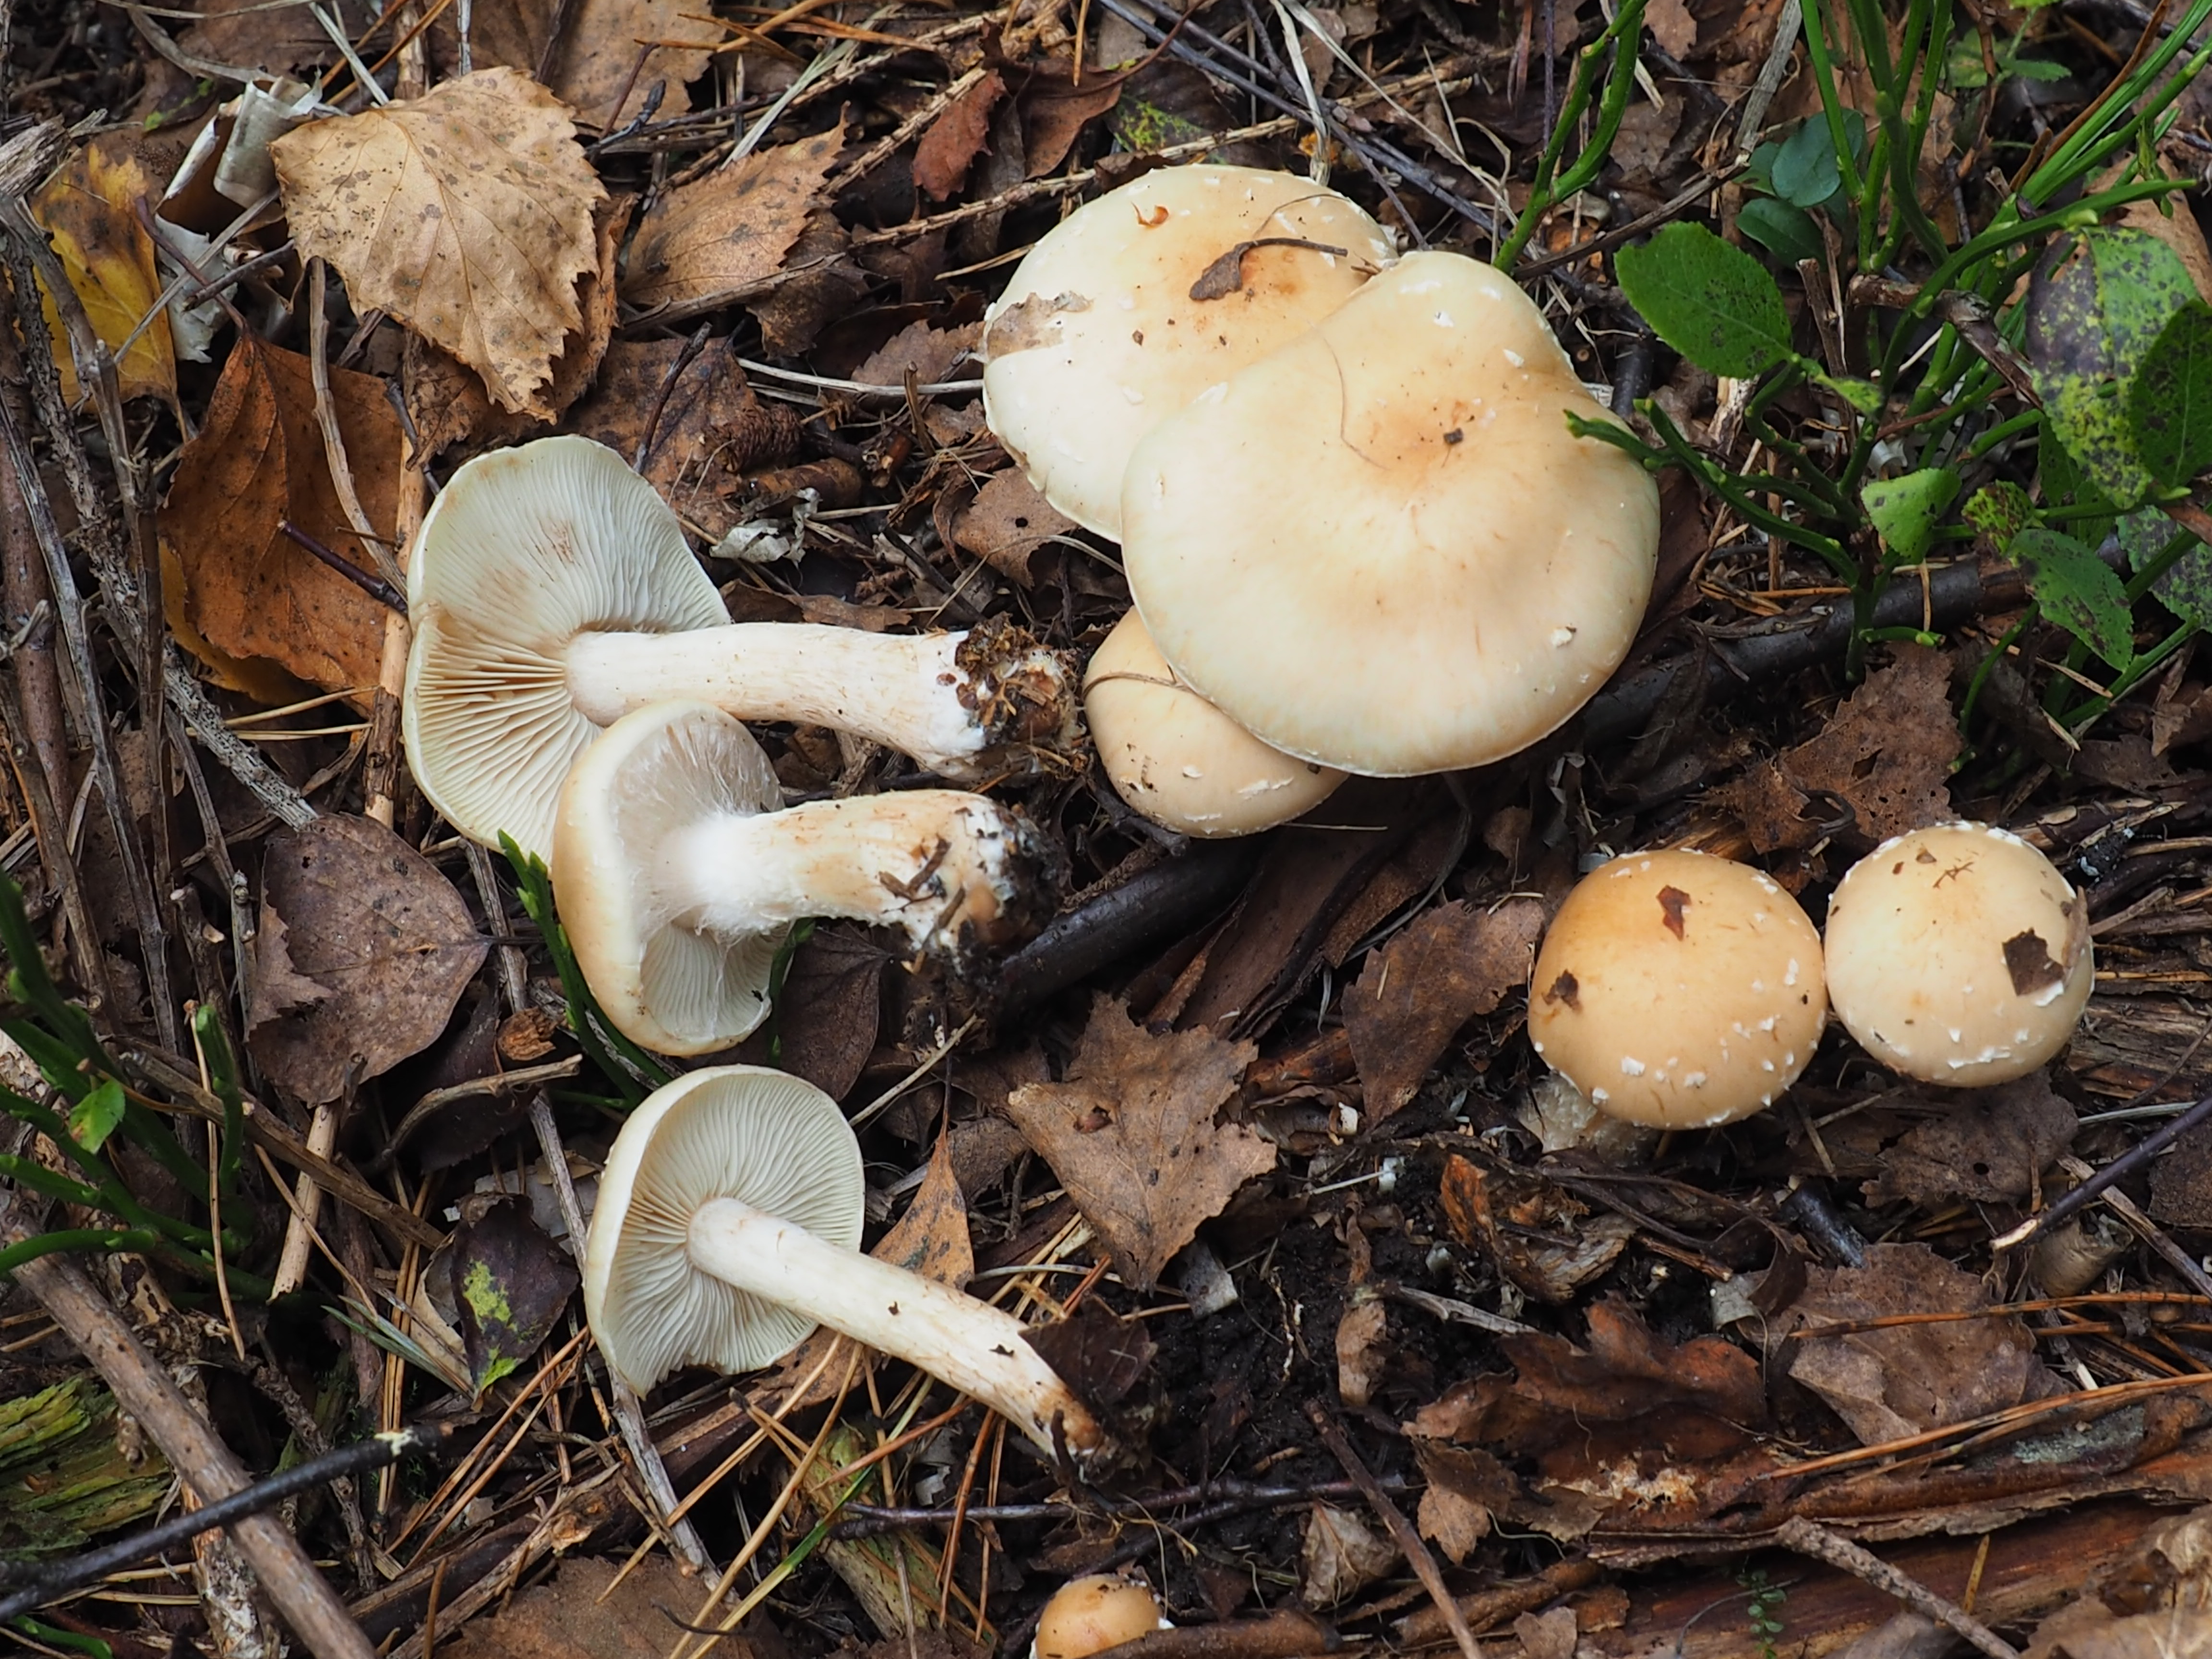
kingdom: Fungi
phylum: Basidiomycota
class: Agaricomycetes
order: Agaricales
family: Strophariaceae
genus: Pholiota
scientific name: Pholiota lenta
